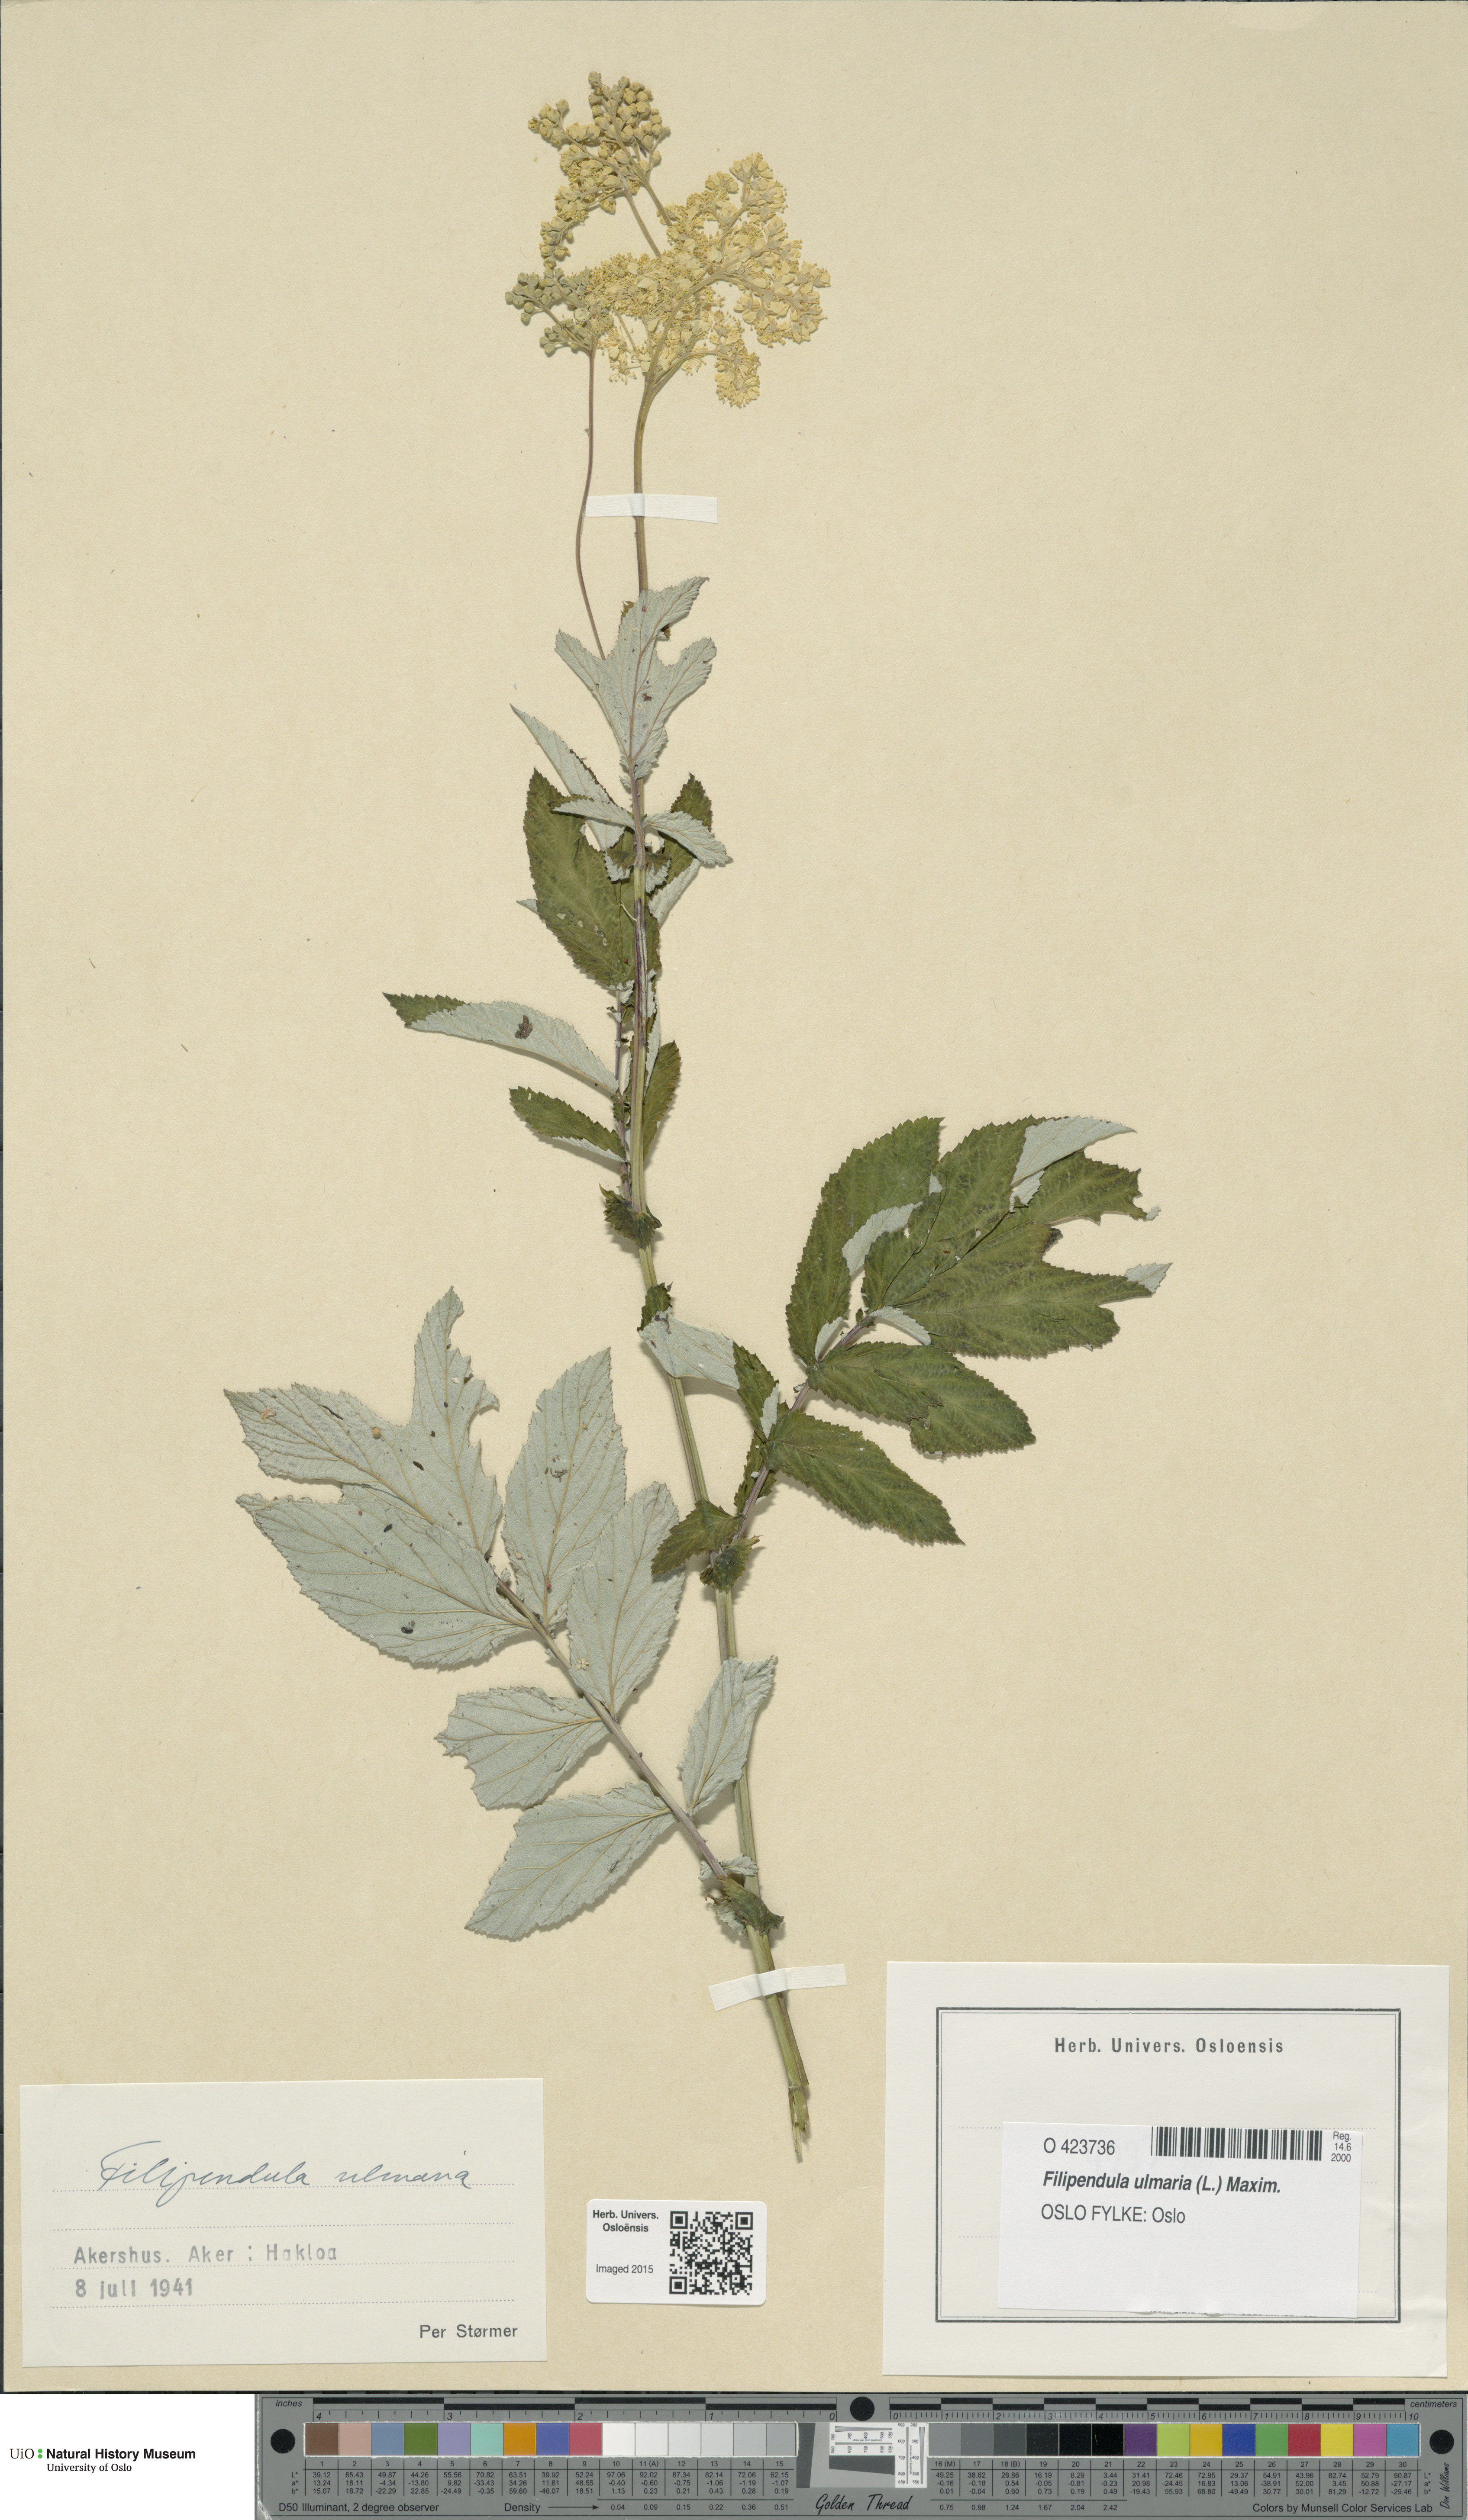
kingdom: Plantae
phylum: Tracheophyta
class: Magnoliopsida
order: Rosales
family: Rosaceae
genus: Filipendula
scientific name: Filipendula ulmaria
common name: Meadowsweet
